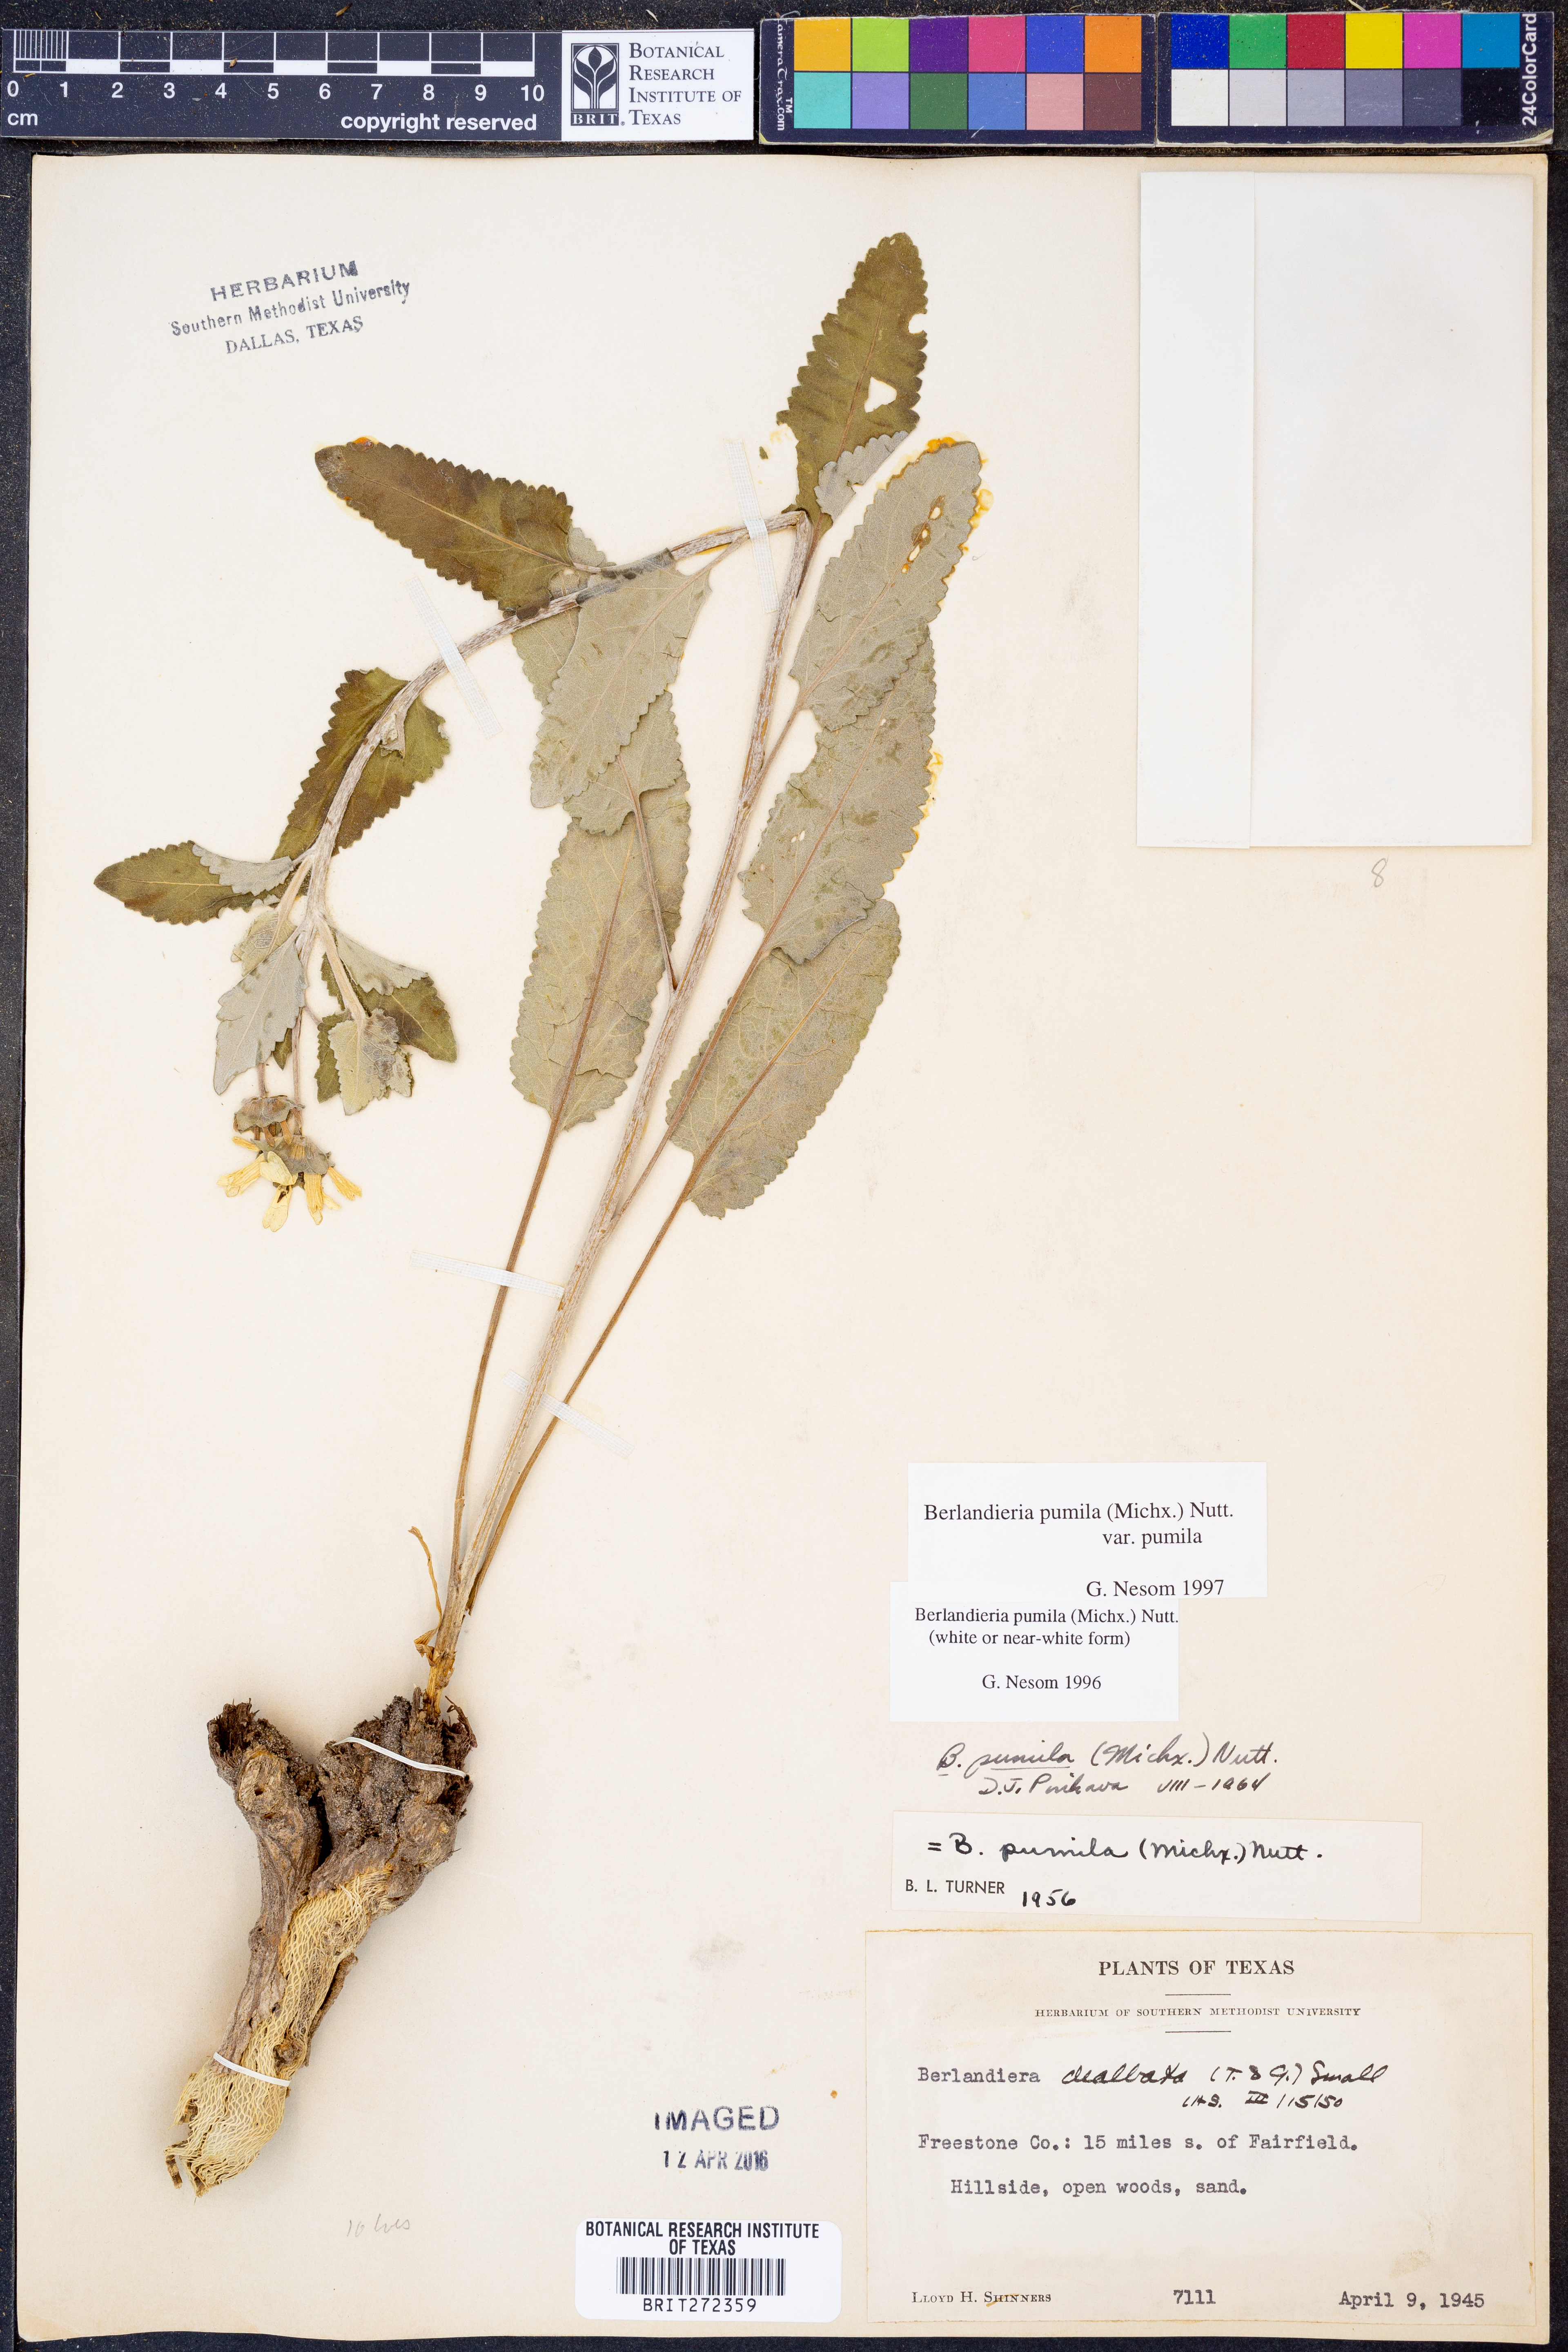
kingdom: Plantae
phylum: Tracheophyta
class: Magnoliopsida
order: Asterales
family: Asteraceae
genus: Berlandiera
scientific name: Berlandiera pumila
